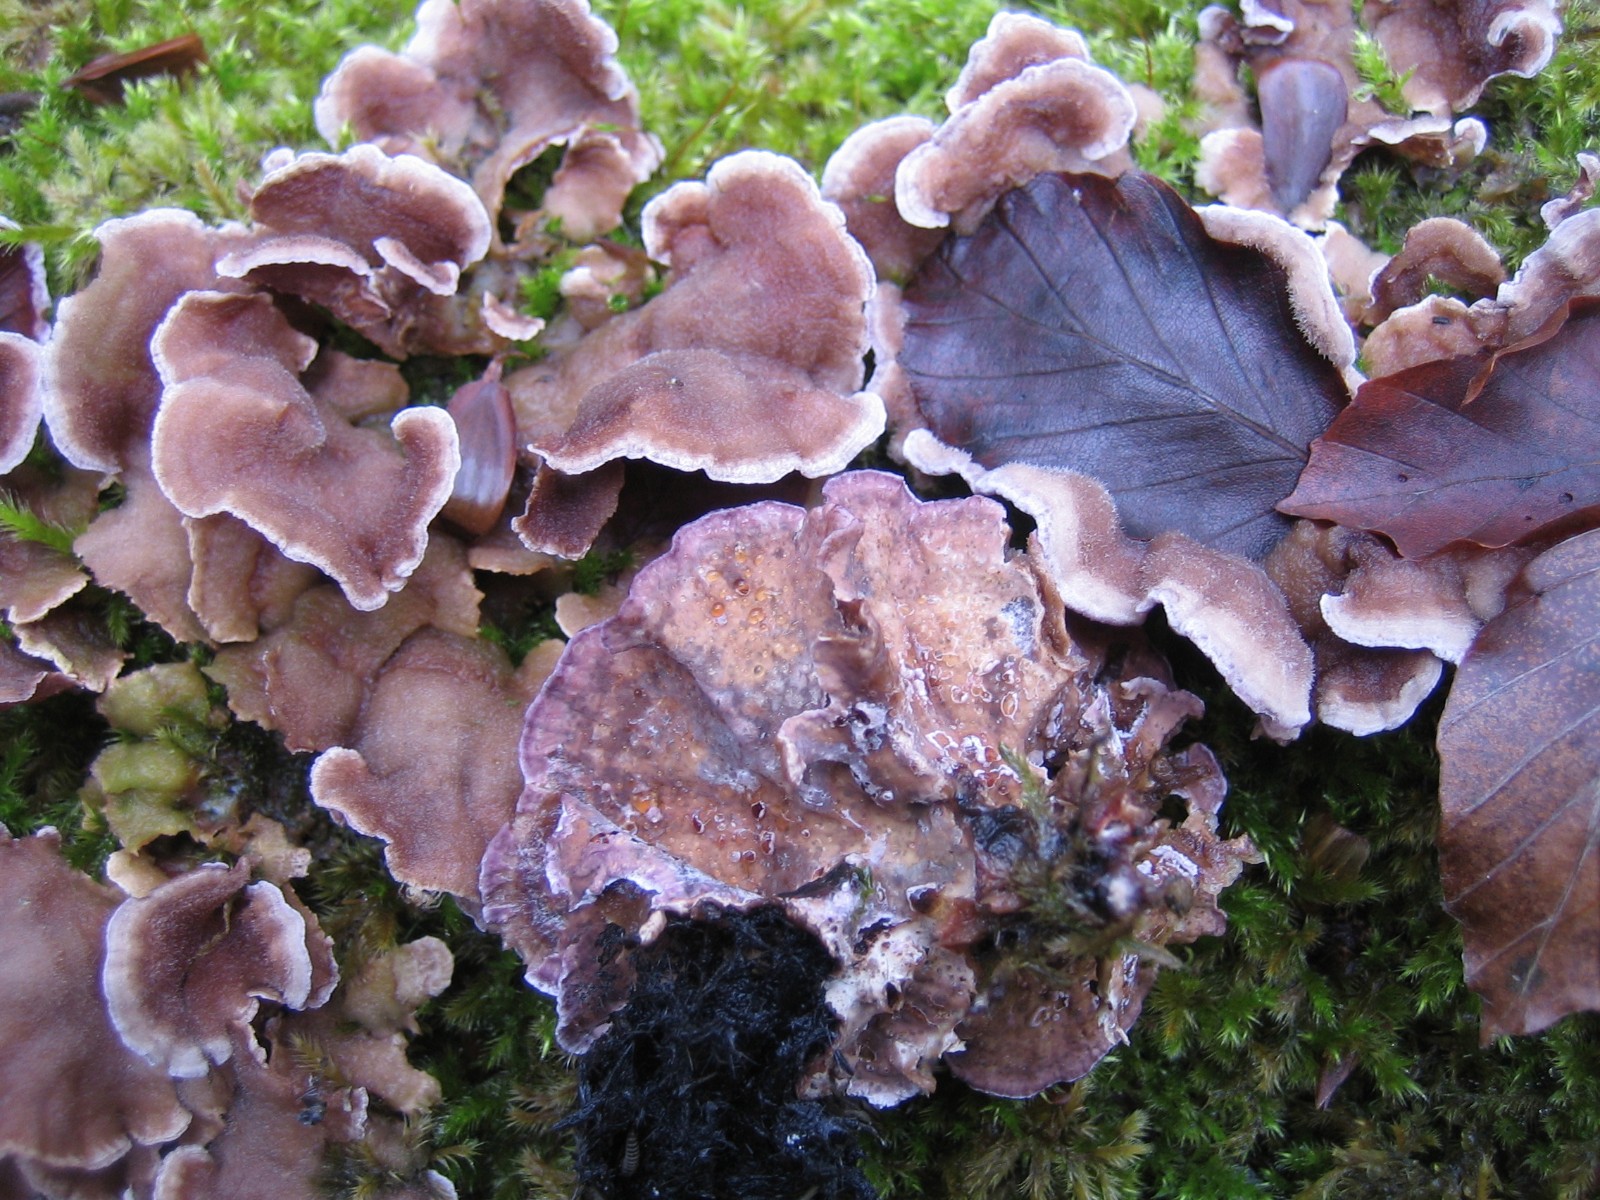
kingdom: Fungi
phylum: Basidiomycota
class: Agaricomycetes
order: Agaricales
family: Cyphellaceae
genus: Chondrostereum
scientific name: Chondrostereum purpureum
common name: purpurlædersvamp
